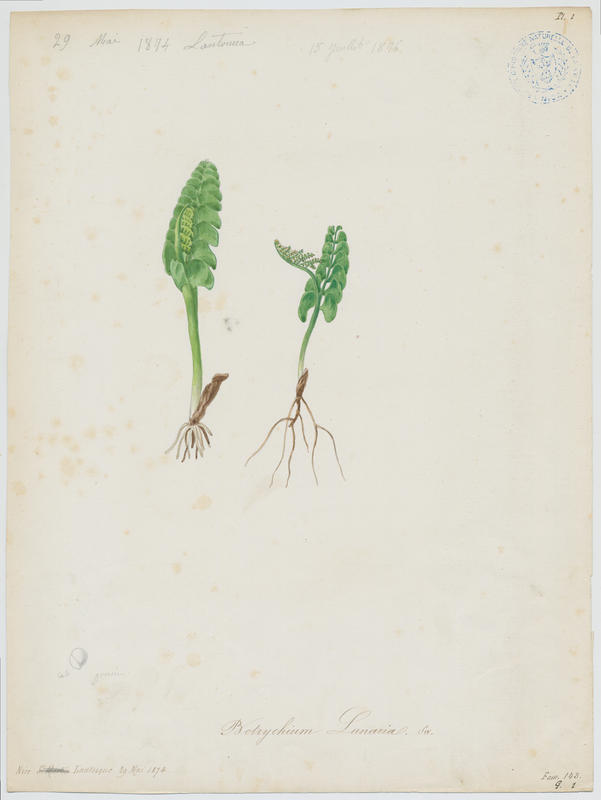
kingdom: Plantae
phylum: Tracheophyta
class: Polypodiopsida
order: Ophioglossales
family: Ophioglossaceae
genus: Botrychium
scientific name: Botrychium lunaria
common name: Moonwort
